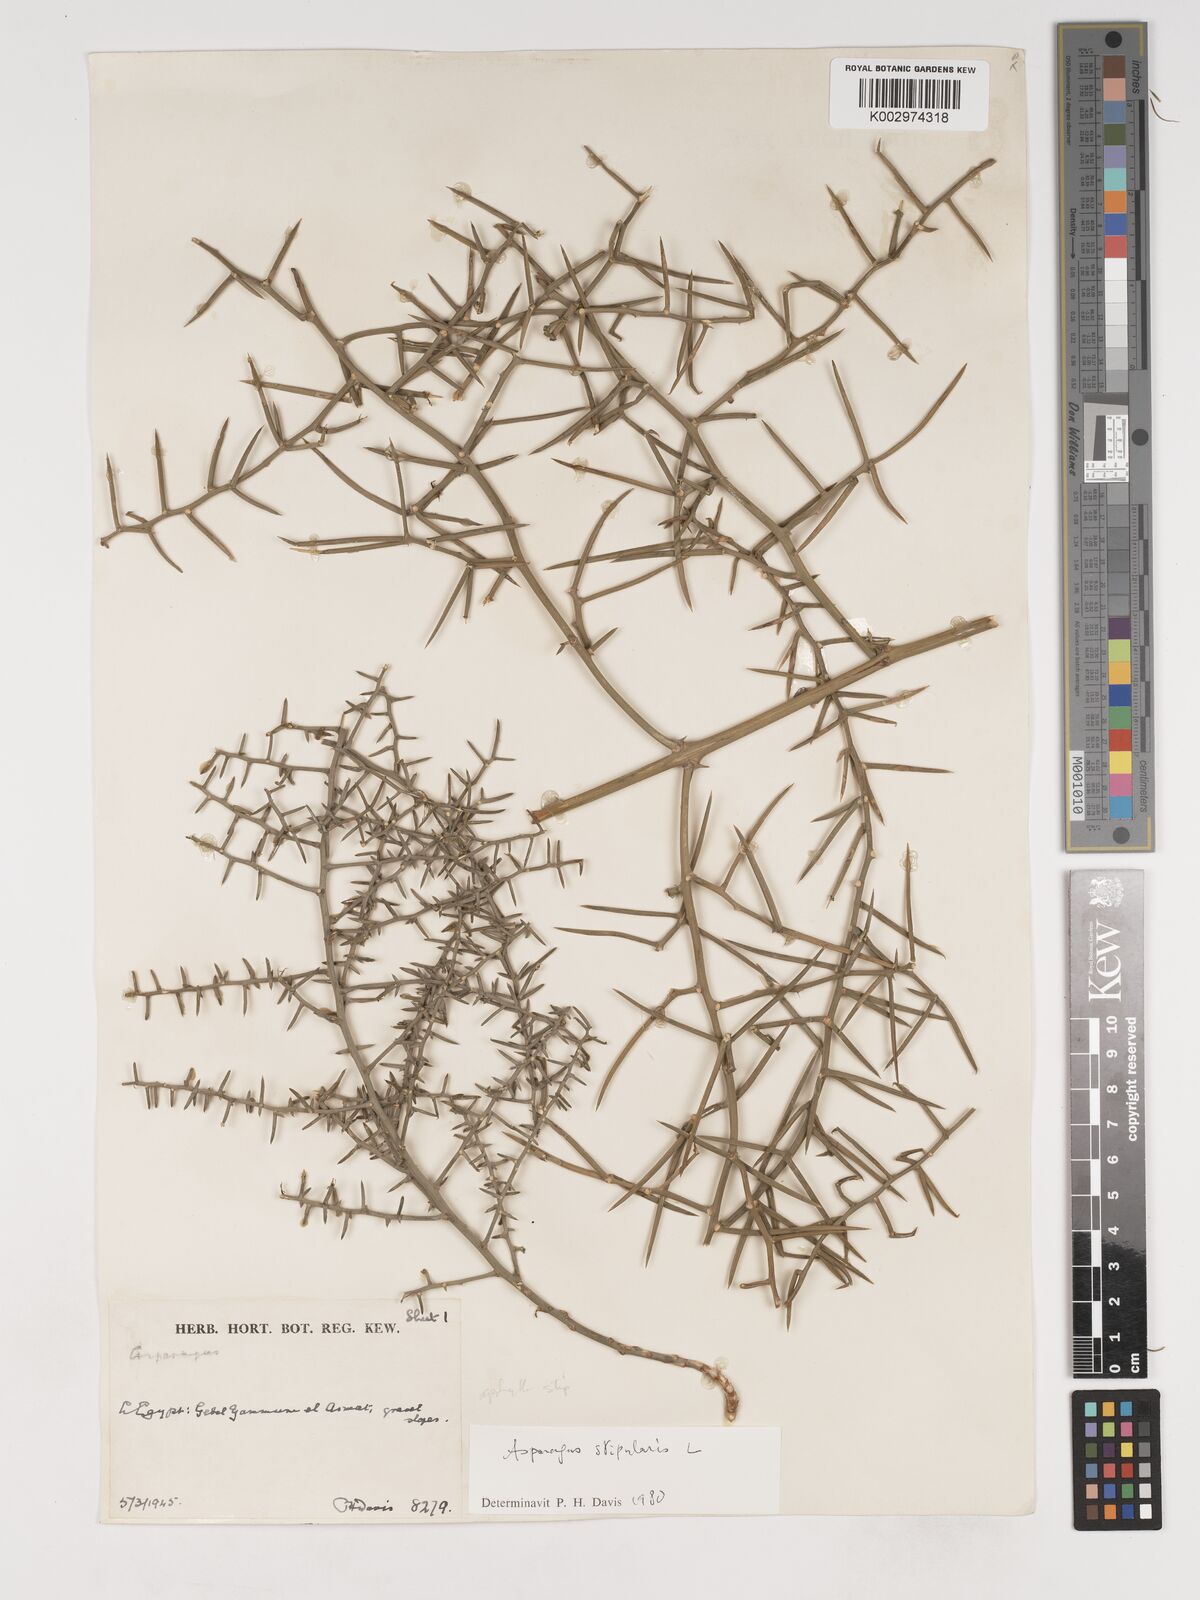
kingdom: Plantae
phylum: Tracheophyta
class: Liliopsida
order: Asparagales
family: Asparagaceae
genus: Asparagus
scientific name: Asparagus horridus
